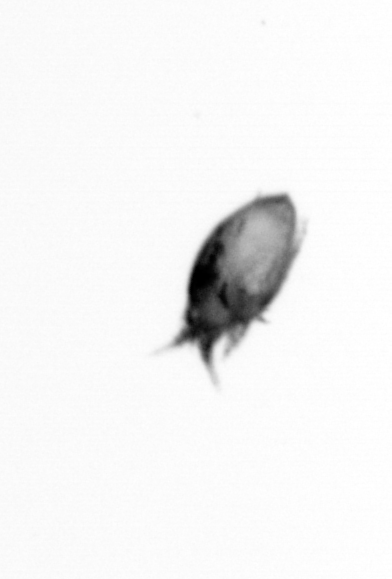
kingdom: Animalia
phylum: Arthropoda
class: Copepoda
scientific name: Copepoda
